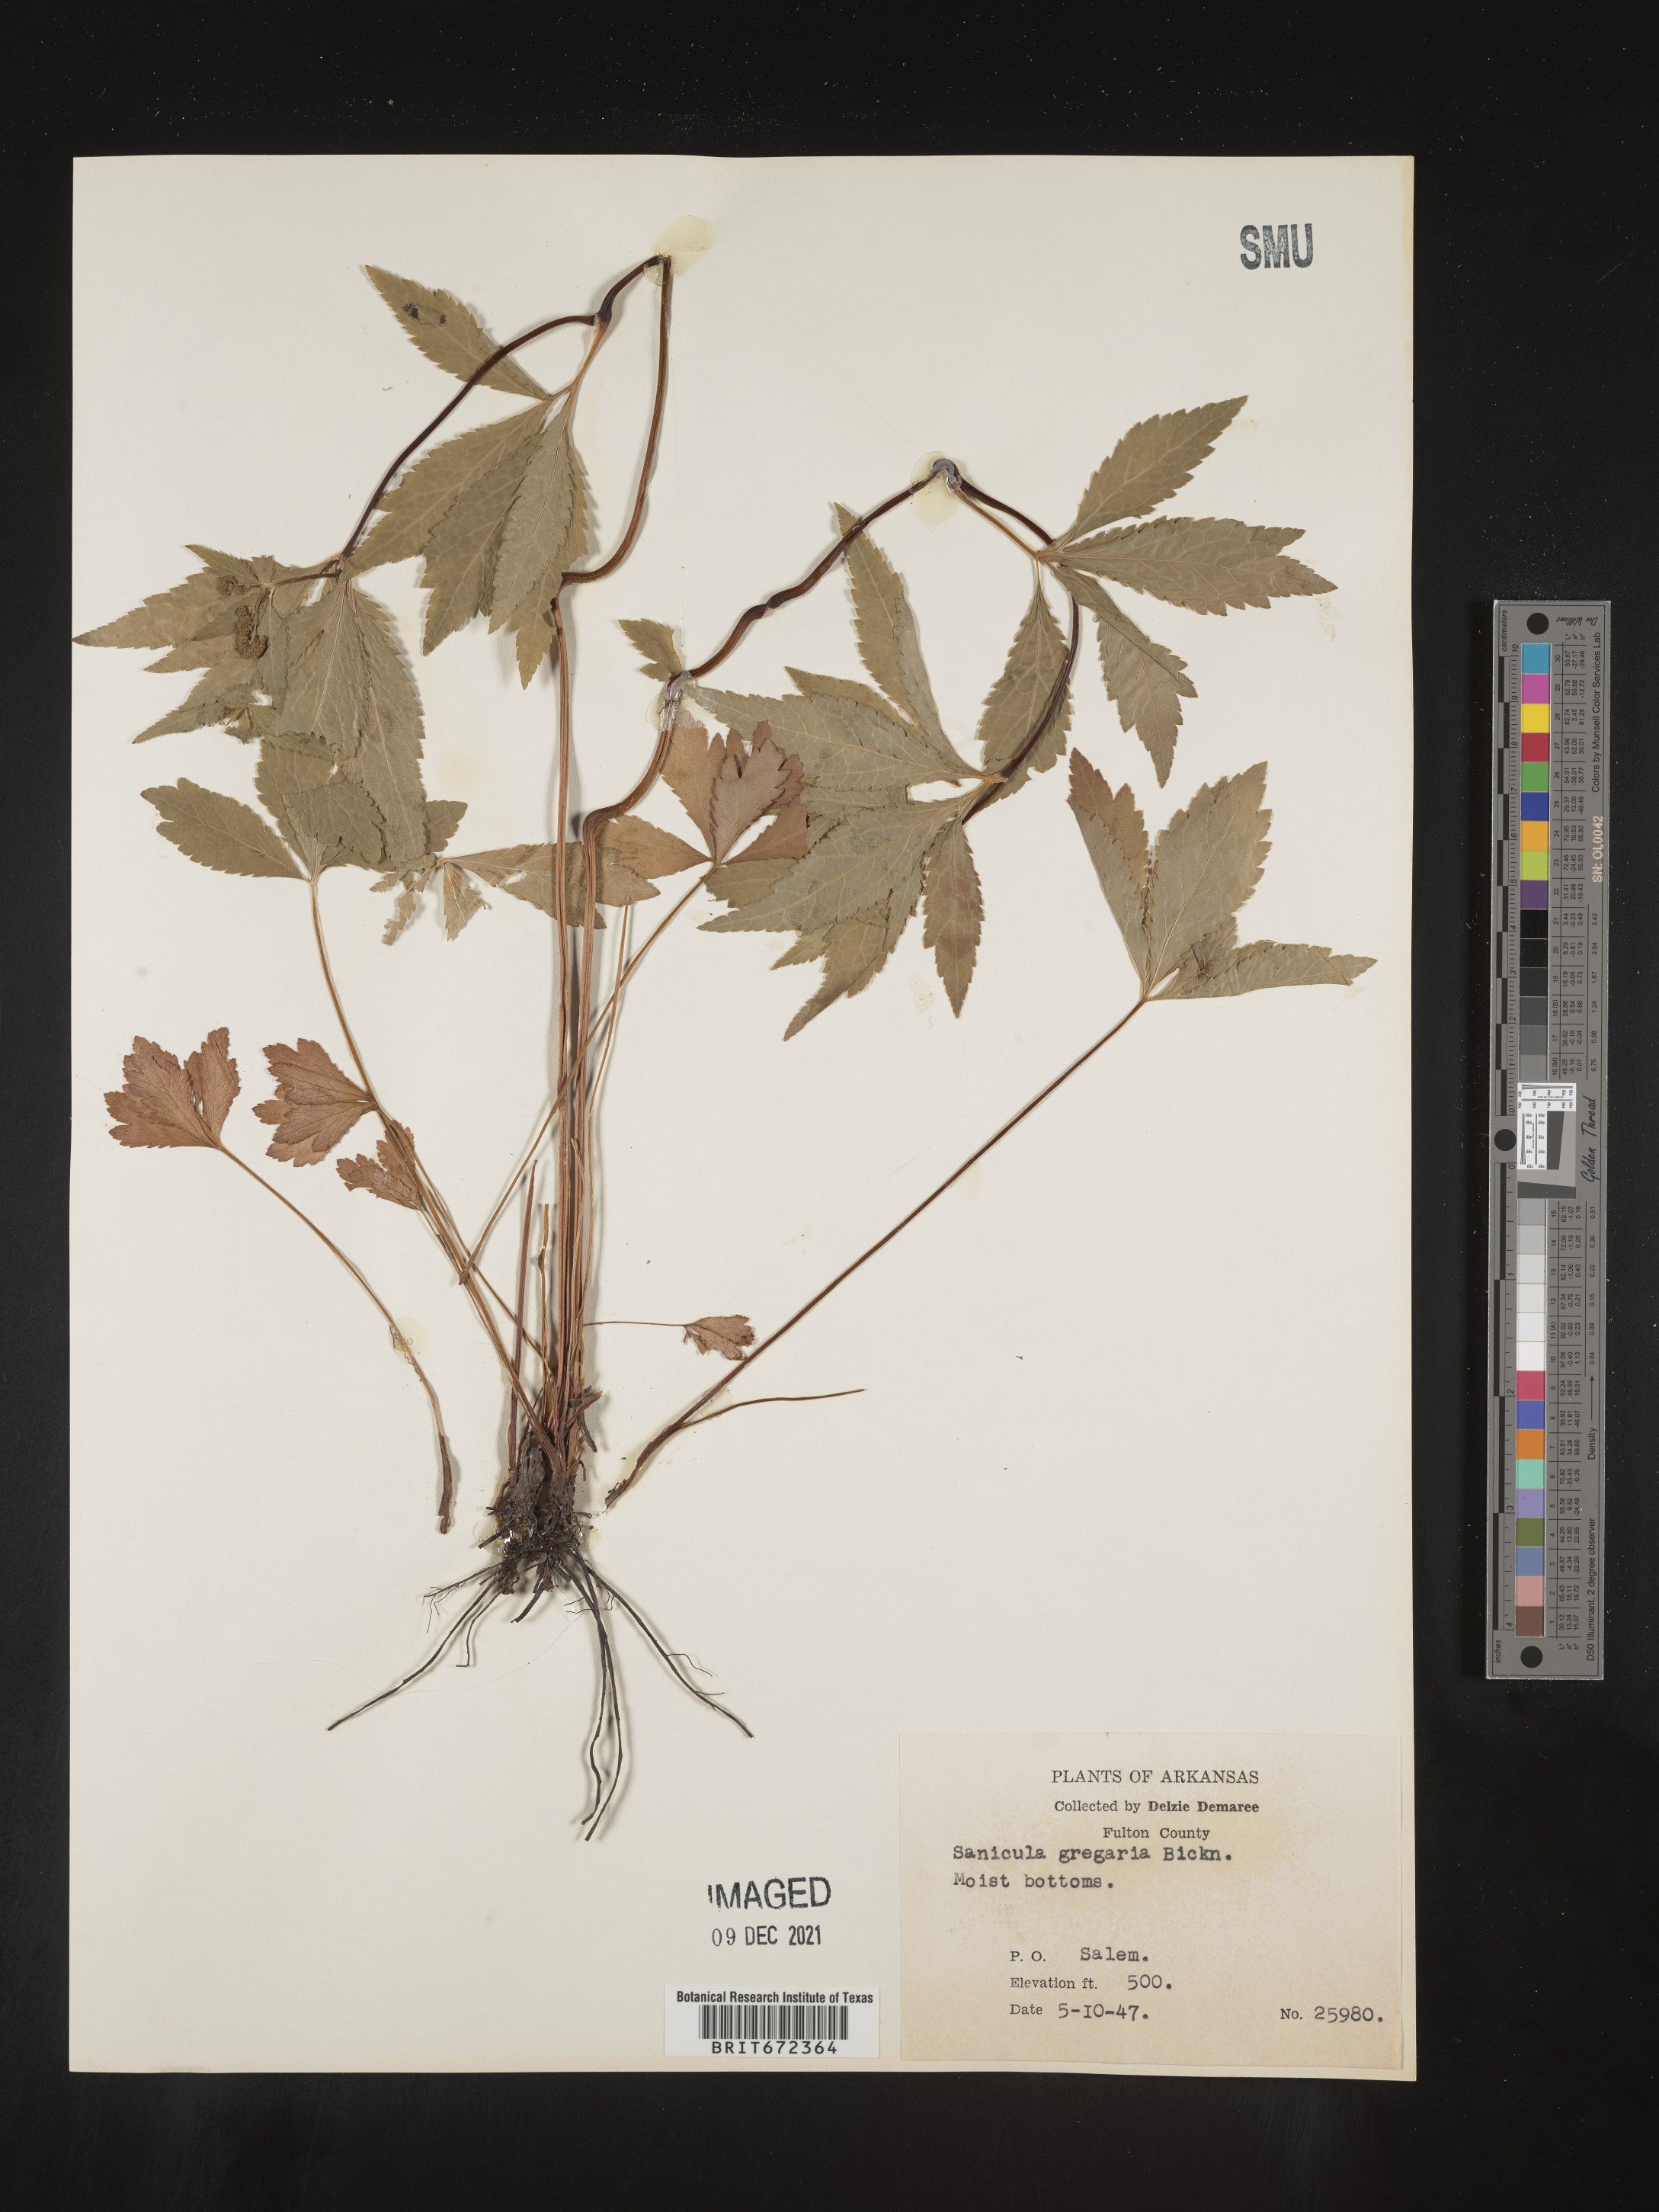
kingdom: Plantae
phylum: Tracheophyta
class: Magnoliopsida
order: Apiales
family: Apiaceae
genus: Sanicula
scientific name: Sanicula odorata
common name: Cluster sanicle
